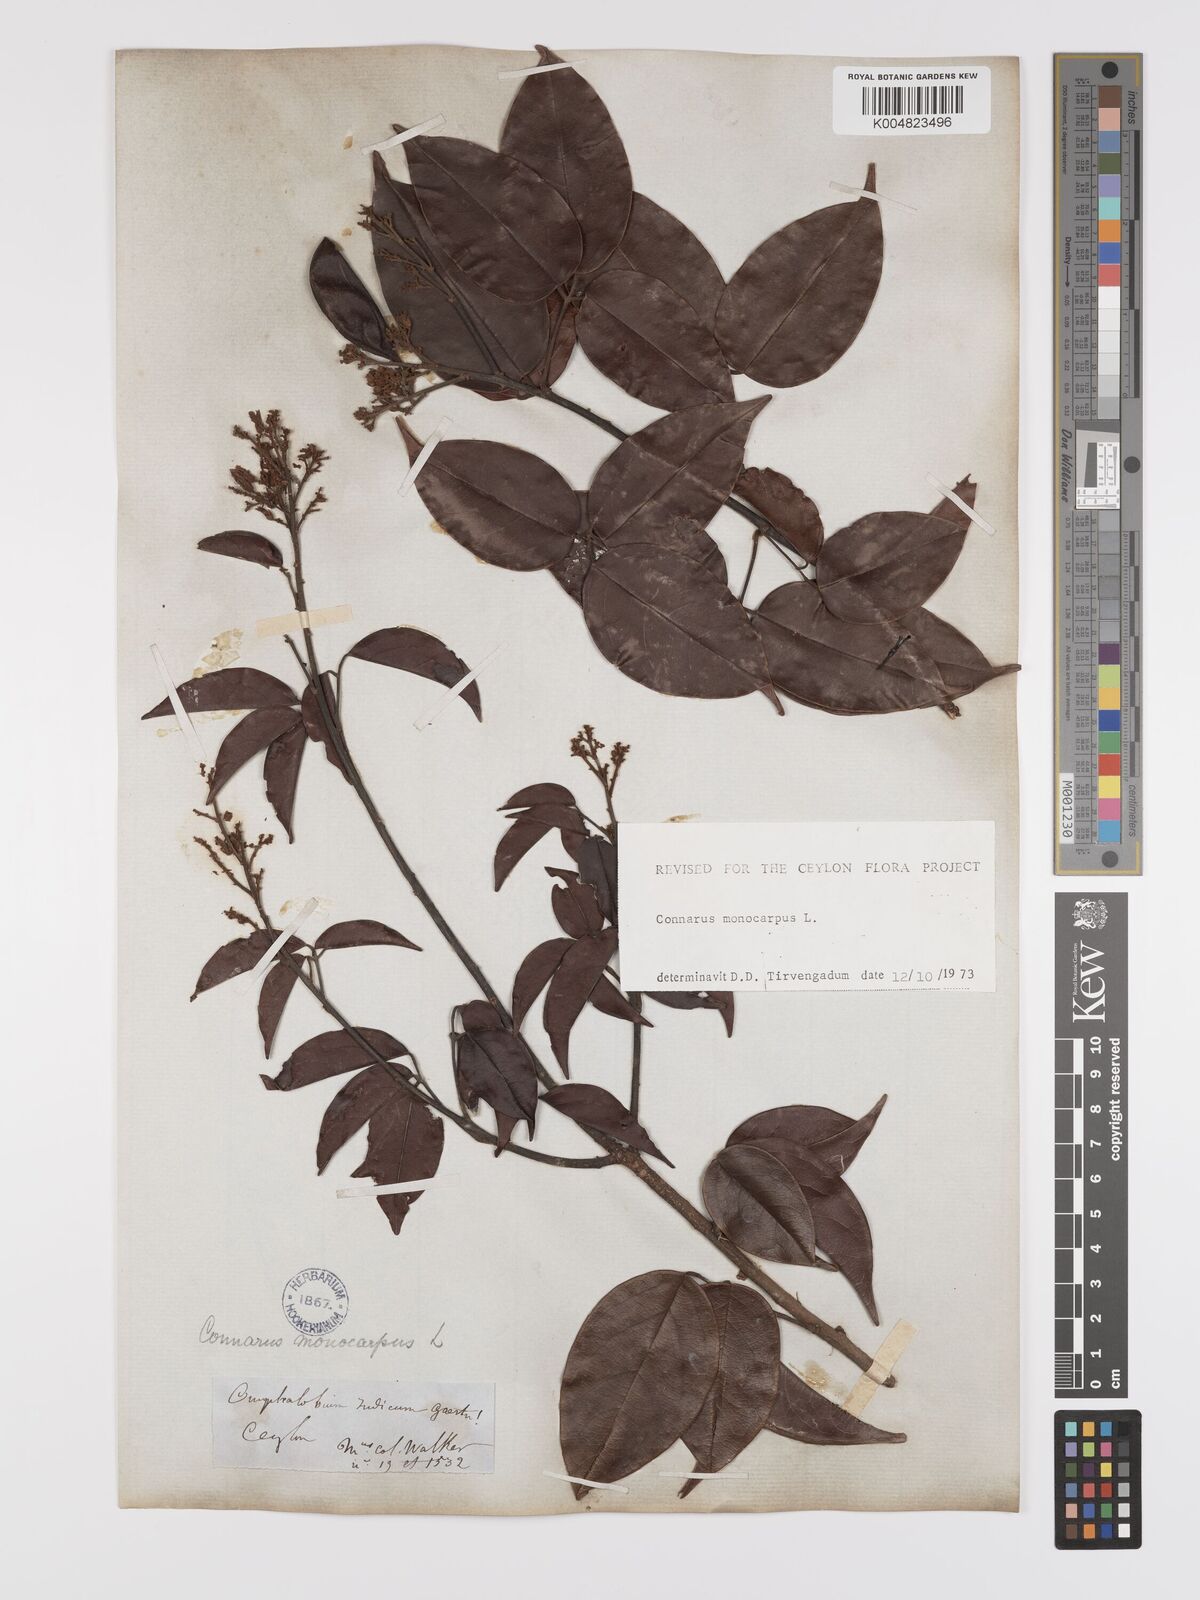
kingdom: Plantae
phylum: Tracheophyta
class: Magnoliopsida
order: Oxalidales
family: Connaraceae
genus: Connarus
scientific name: Connarus semidecandrus
